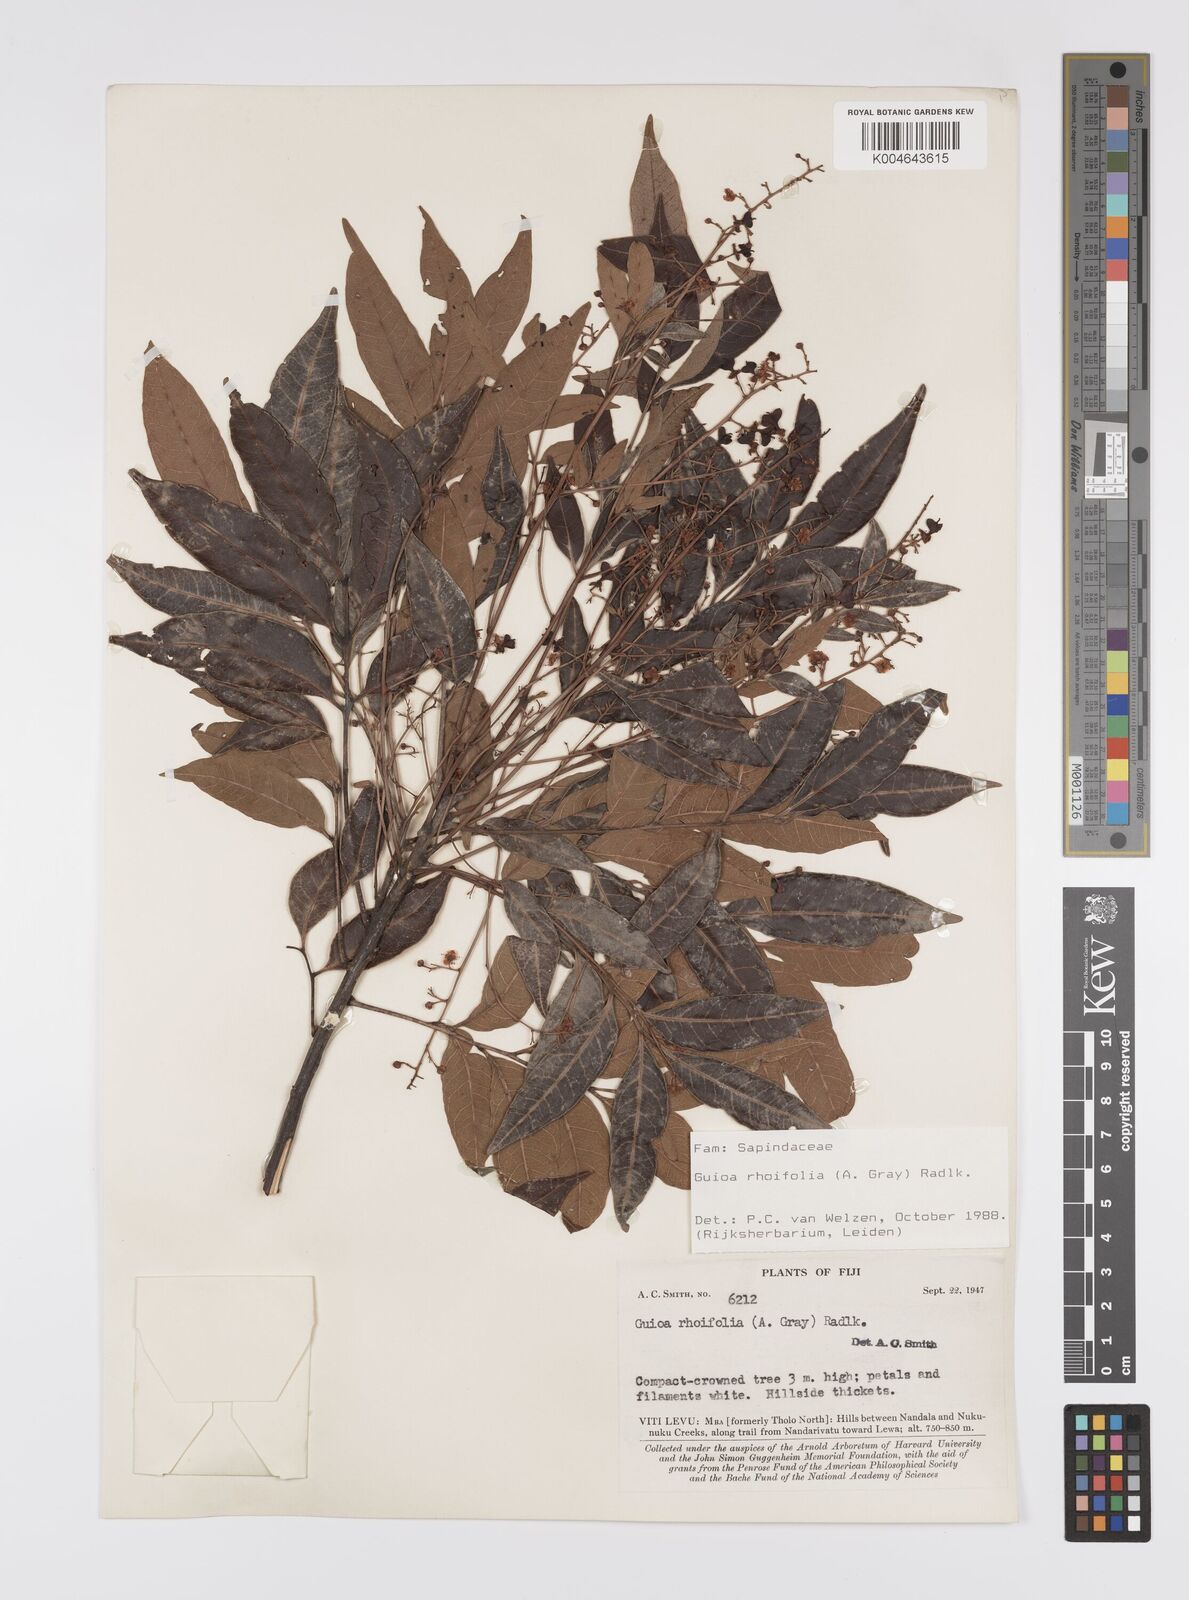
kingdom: Plantae
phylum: Tracheophyta
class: Magnoliopsida
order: Sapindales
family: Sapindaceae
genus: Guioa
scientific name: Guioa rhoifolia
